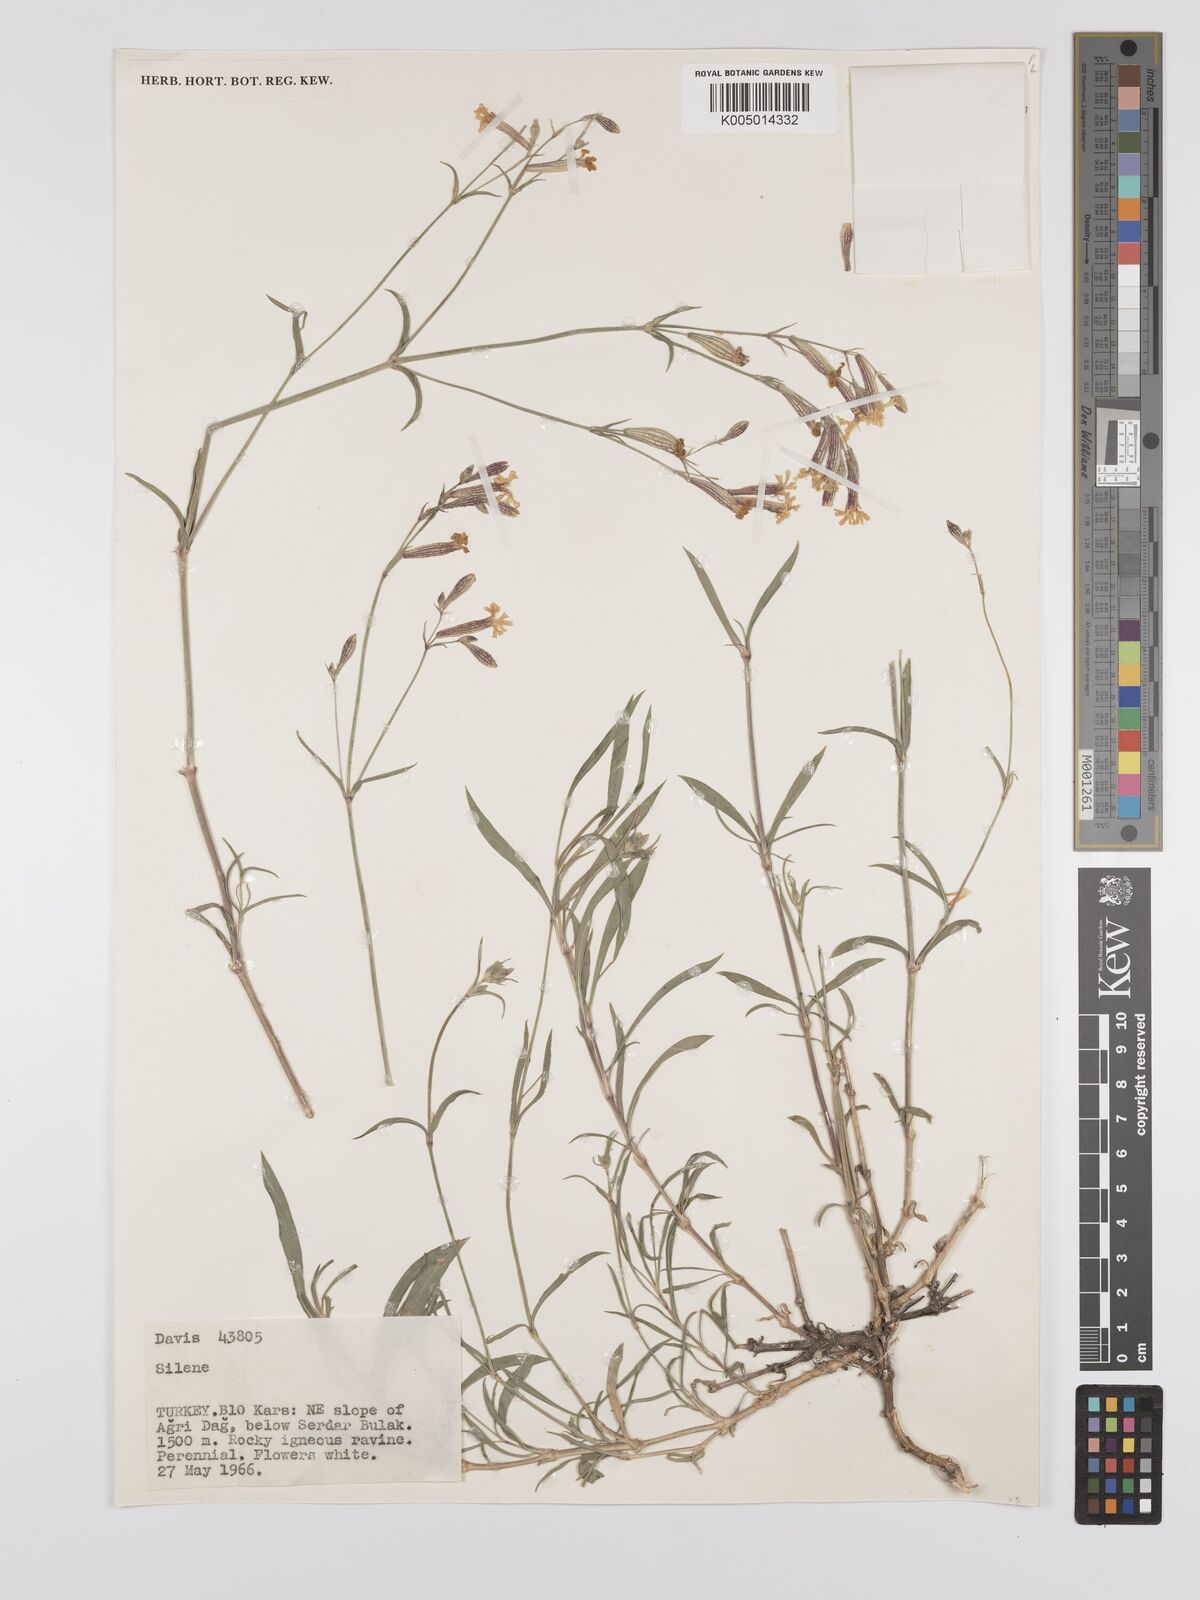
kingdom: Plantae
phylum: Tracheophyta
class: Magnoliopsida
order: Caryophyllales
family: Caryophyllaceae
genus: Silene
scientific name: Silene
